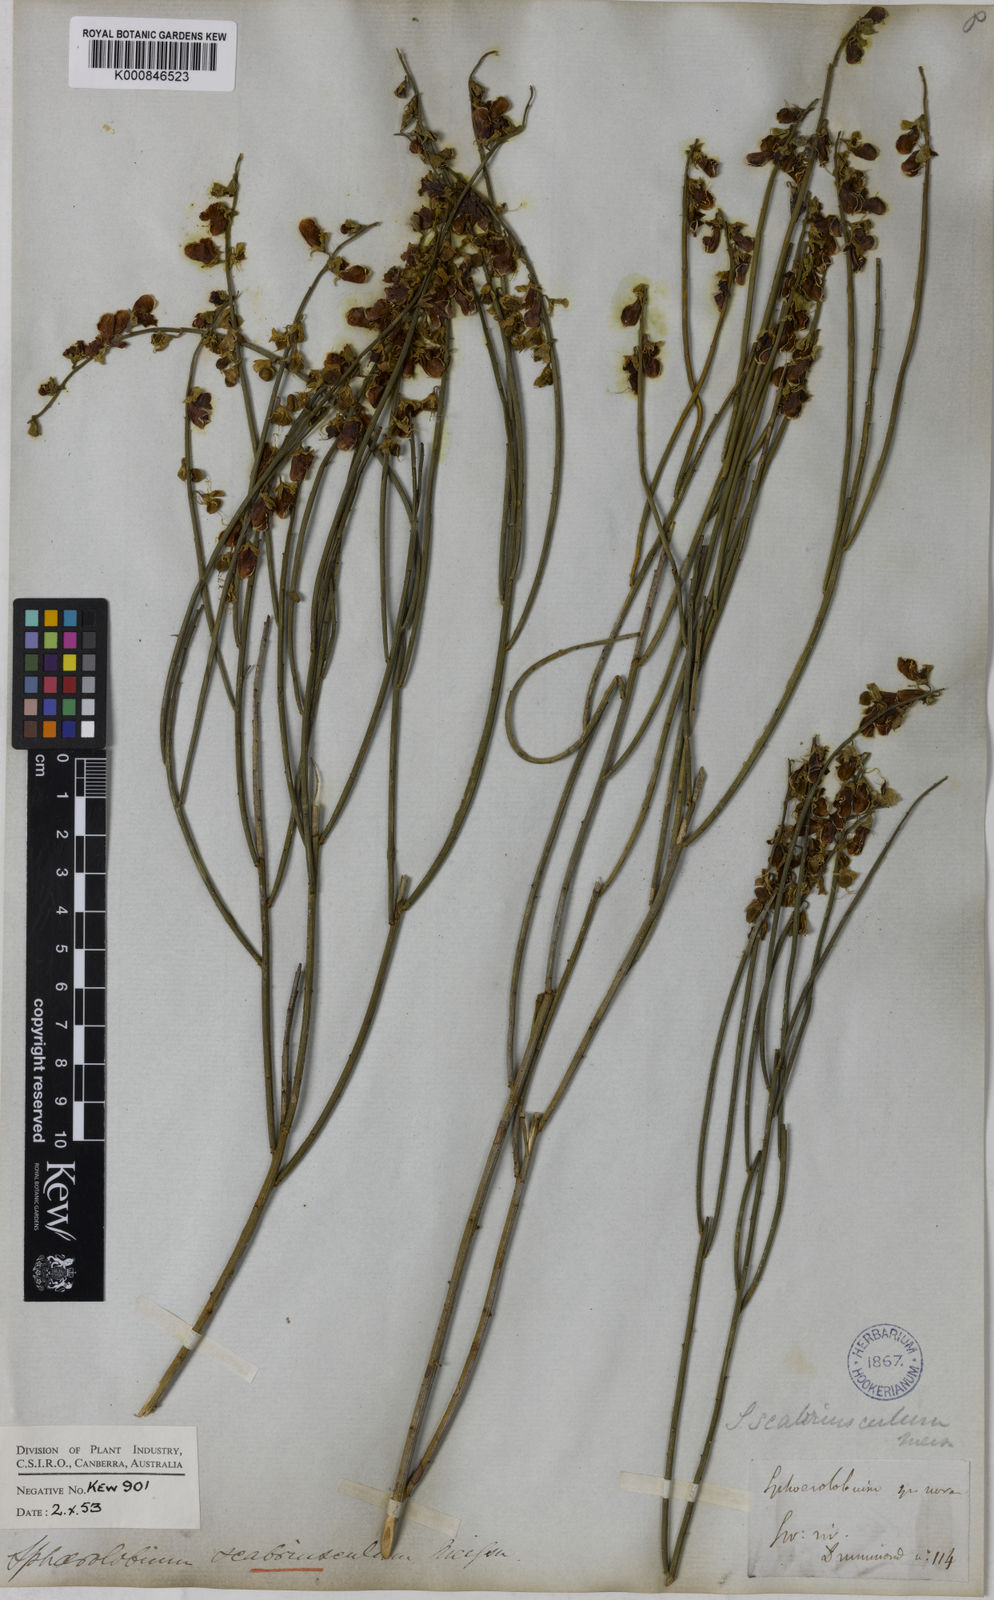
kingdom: Plantae
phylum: Tracheophyta
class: Magnoliopsida
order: Fabales
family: Fabaceae
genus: Sphaerolobium
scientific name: Sphaerolobium scabriusculum
